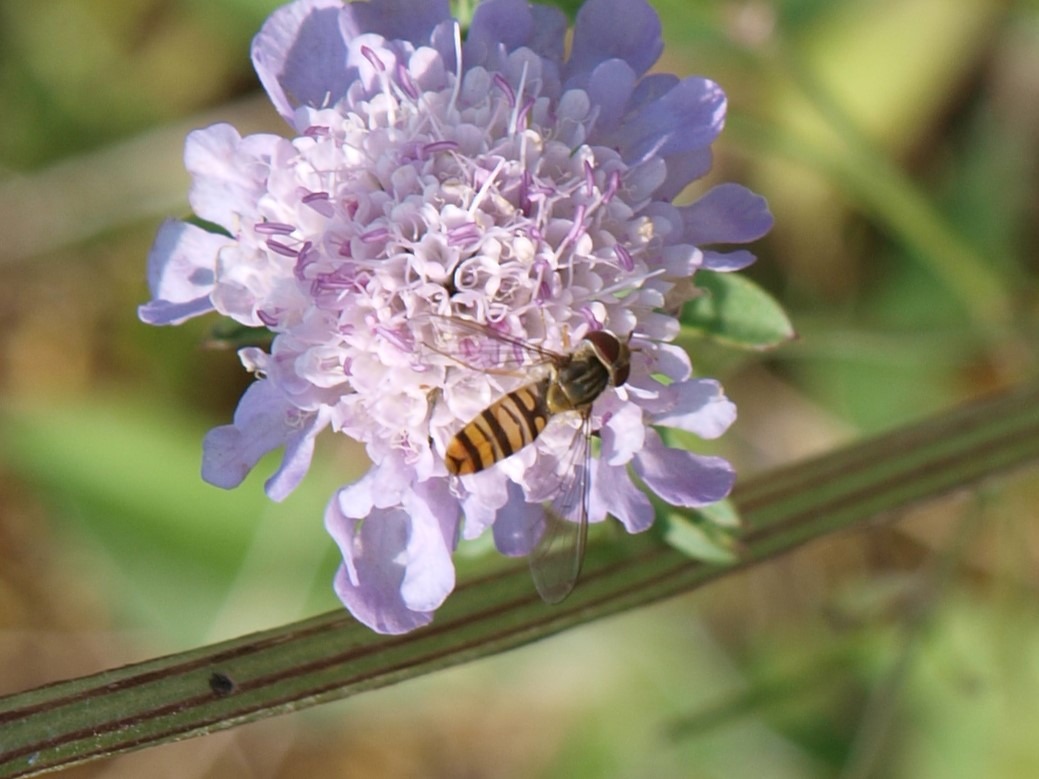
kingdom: Animalia
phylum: Arthropoda
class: Insecta
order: Diptera
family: Syrphidae
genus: Episyrphus
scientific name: Episyrphus balteatus
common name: Dobbeltbåndet svirreflue
